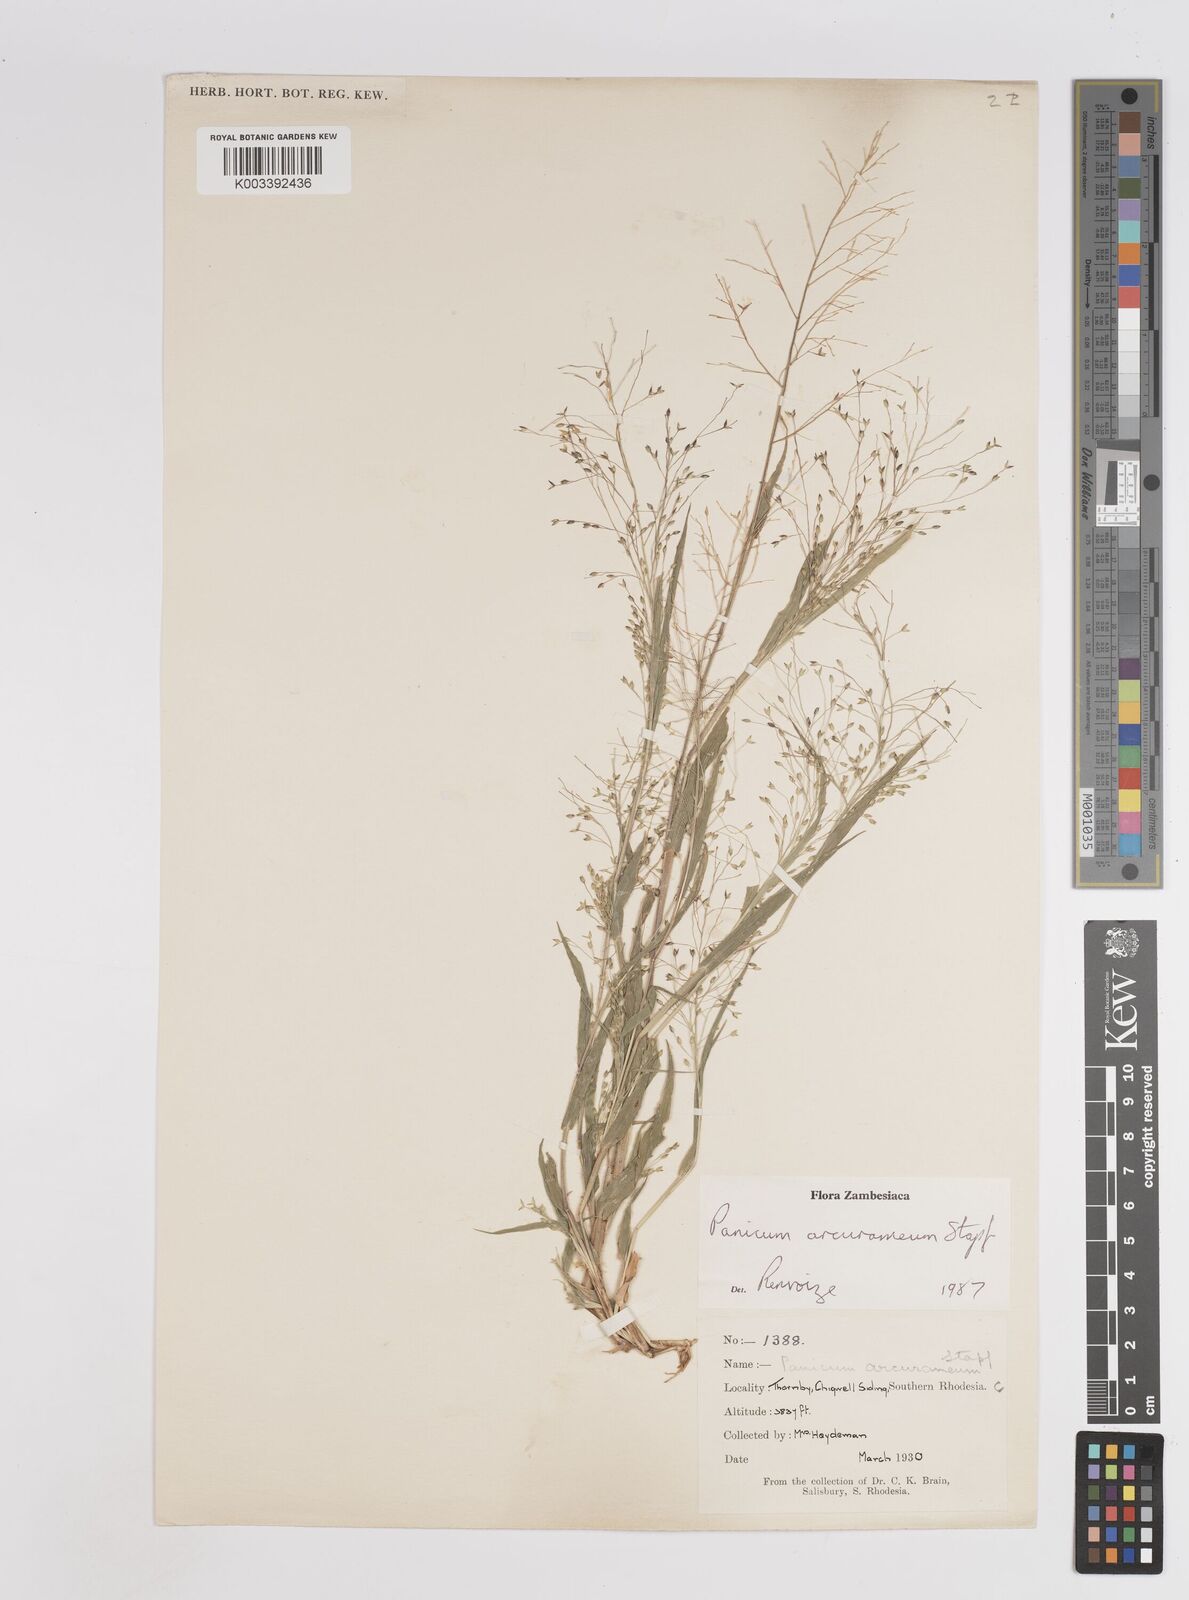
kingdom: Plantae
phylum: Tracheophyta
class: Liliopsida
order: Poales
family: Poaceae
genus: Panicum
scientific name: Panicum arcurameum
